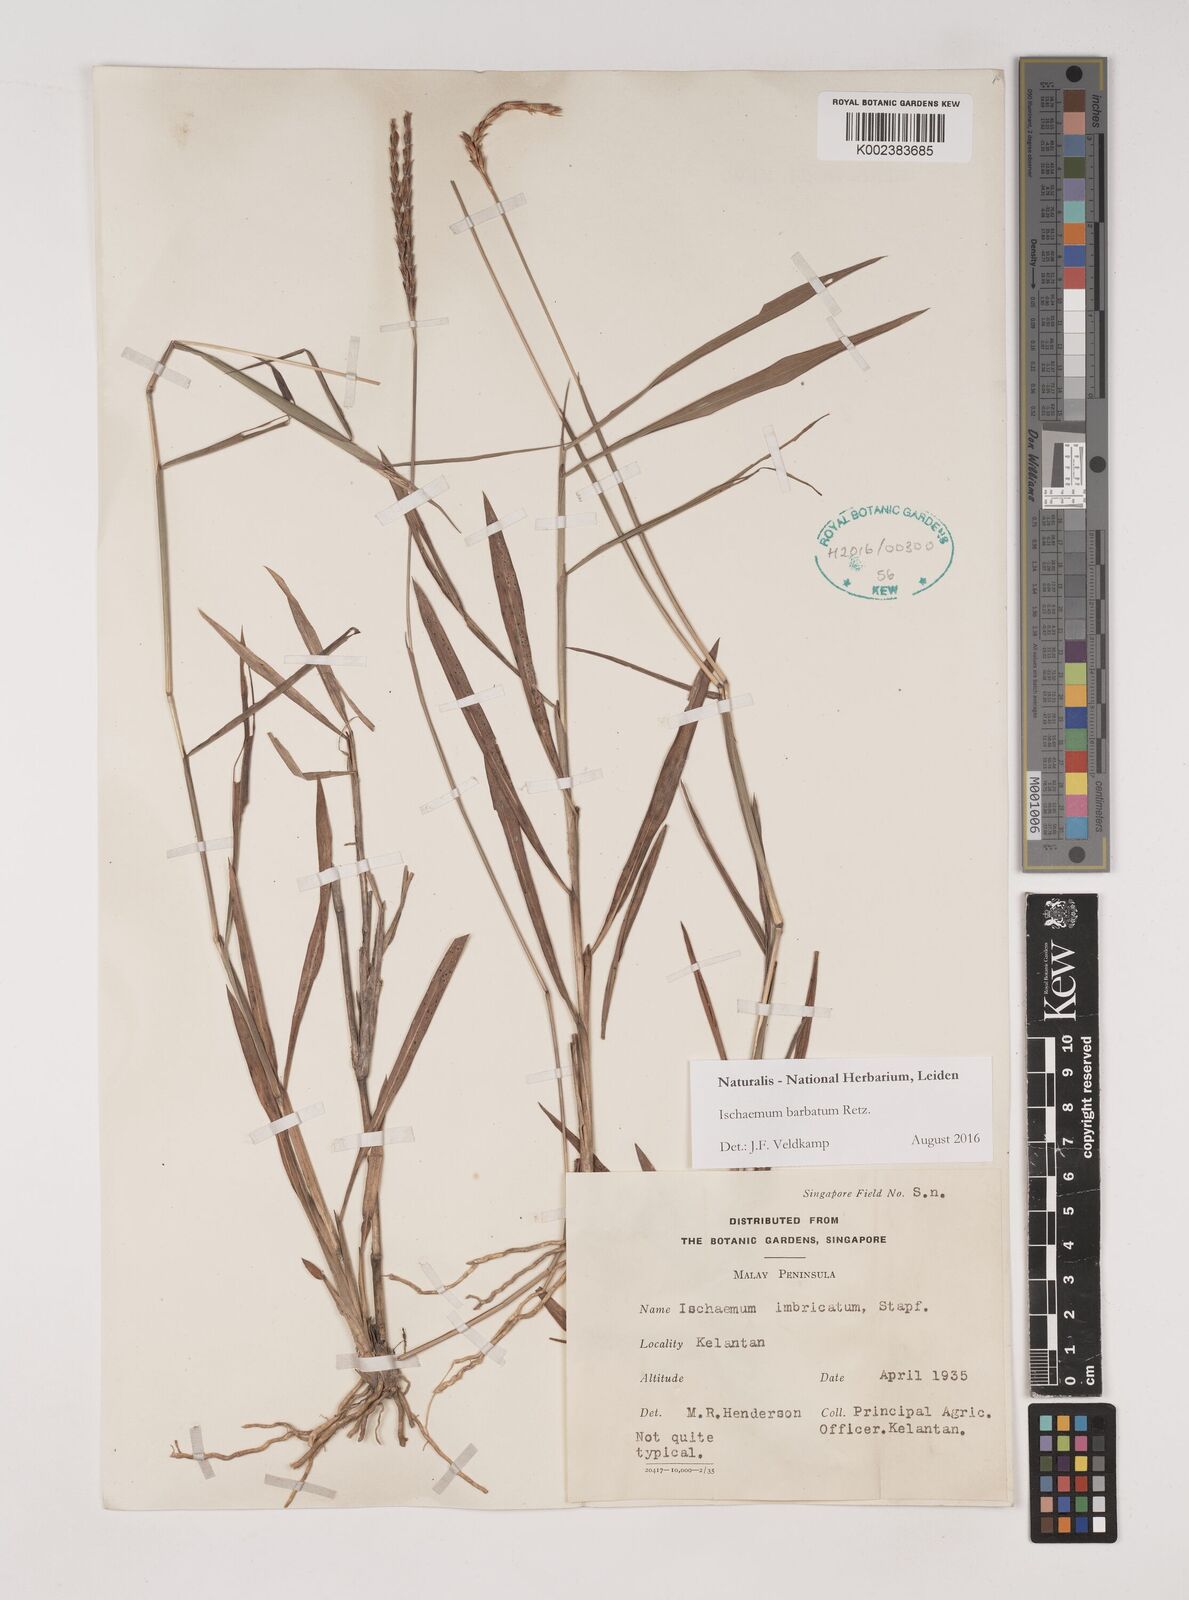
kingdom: Plantae
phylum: Tracheophyta
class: Liliopsida
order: Poales
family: Poaceae
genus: Ischaemum
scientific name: Ischaemum barbatum
